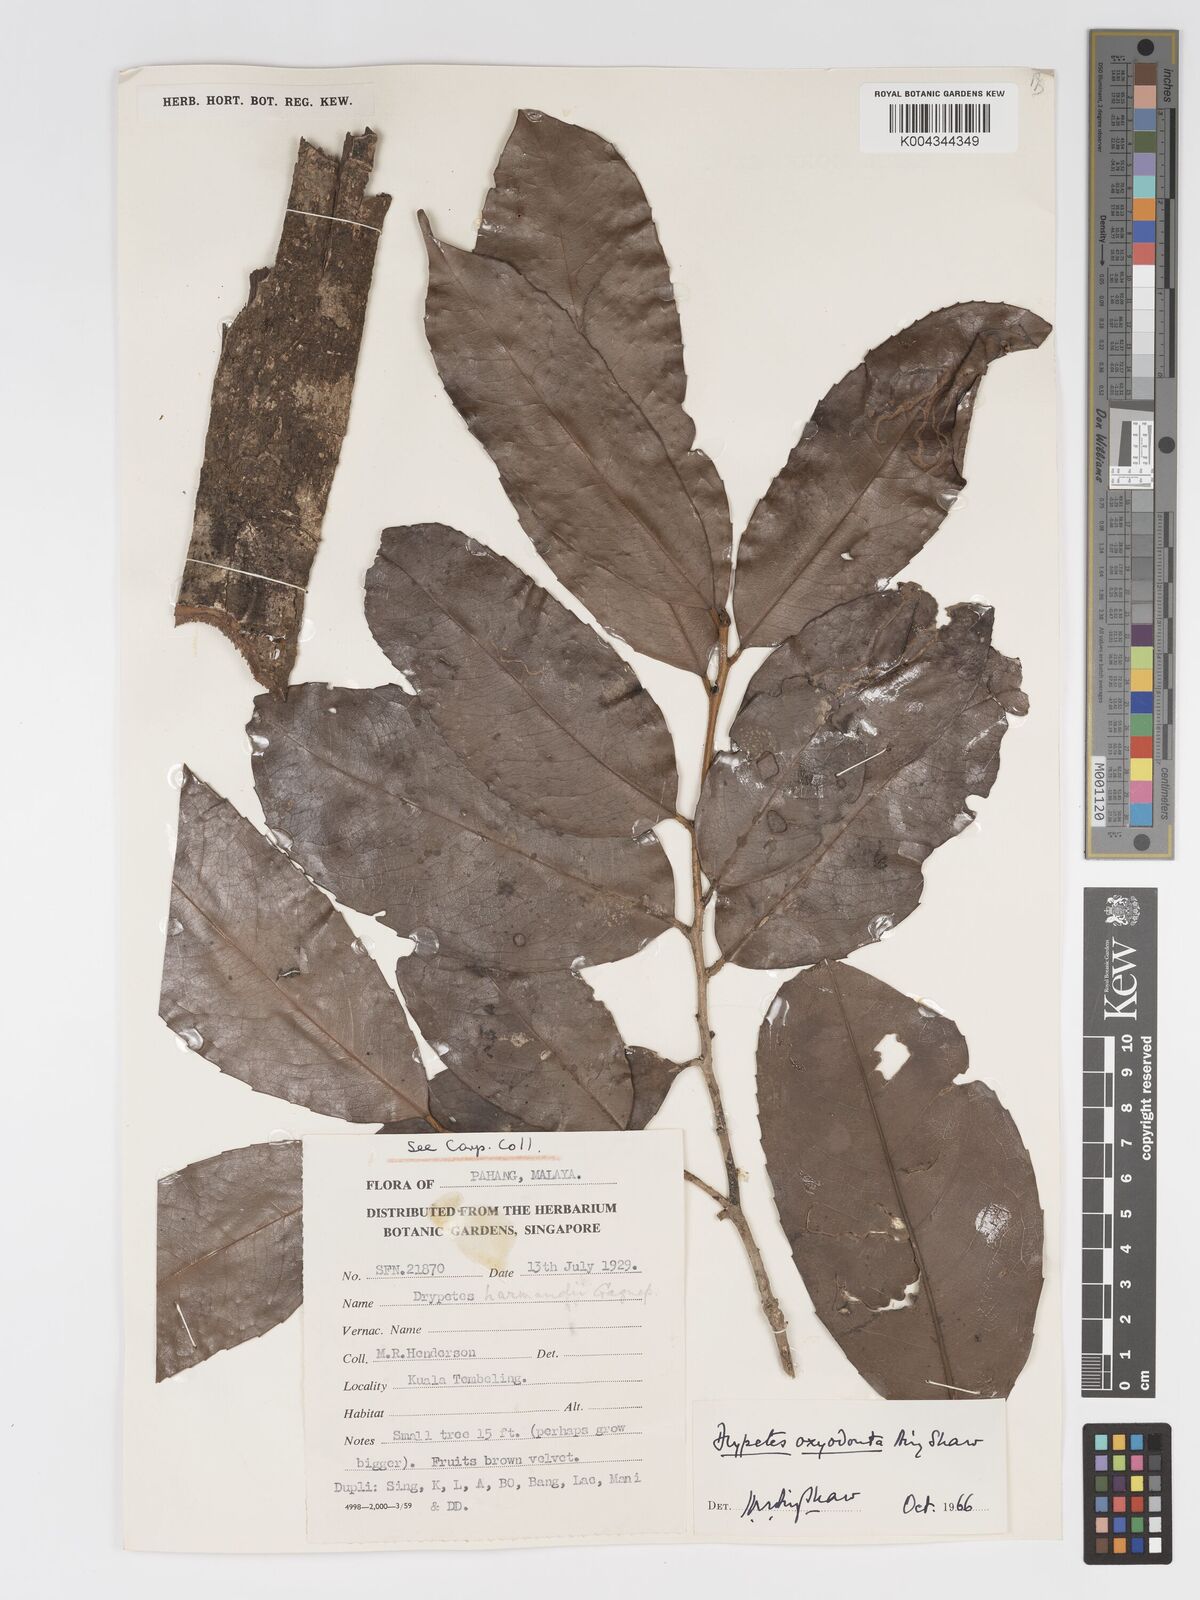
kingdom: Plantae
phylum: Tracheophyta
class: Magnoliopsida
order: Malpighiales
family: Putranjivaceae
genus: Drypetes
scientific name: Drypetes oxyodonta
